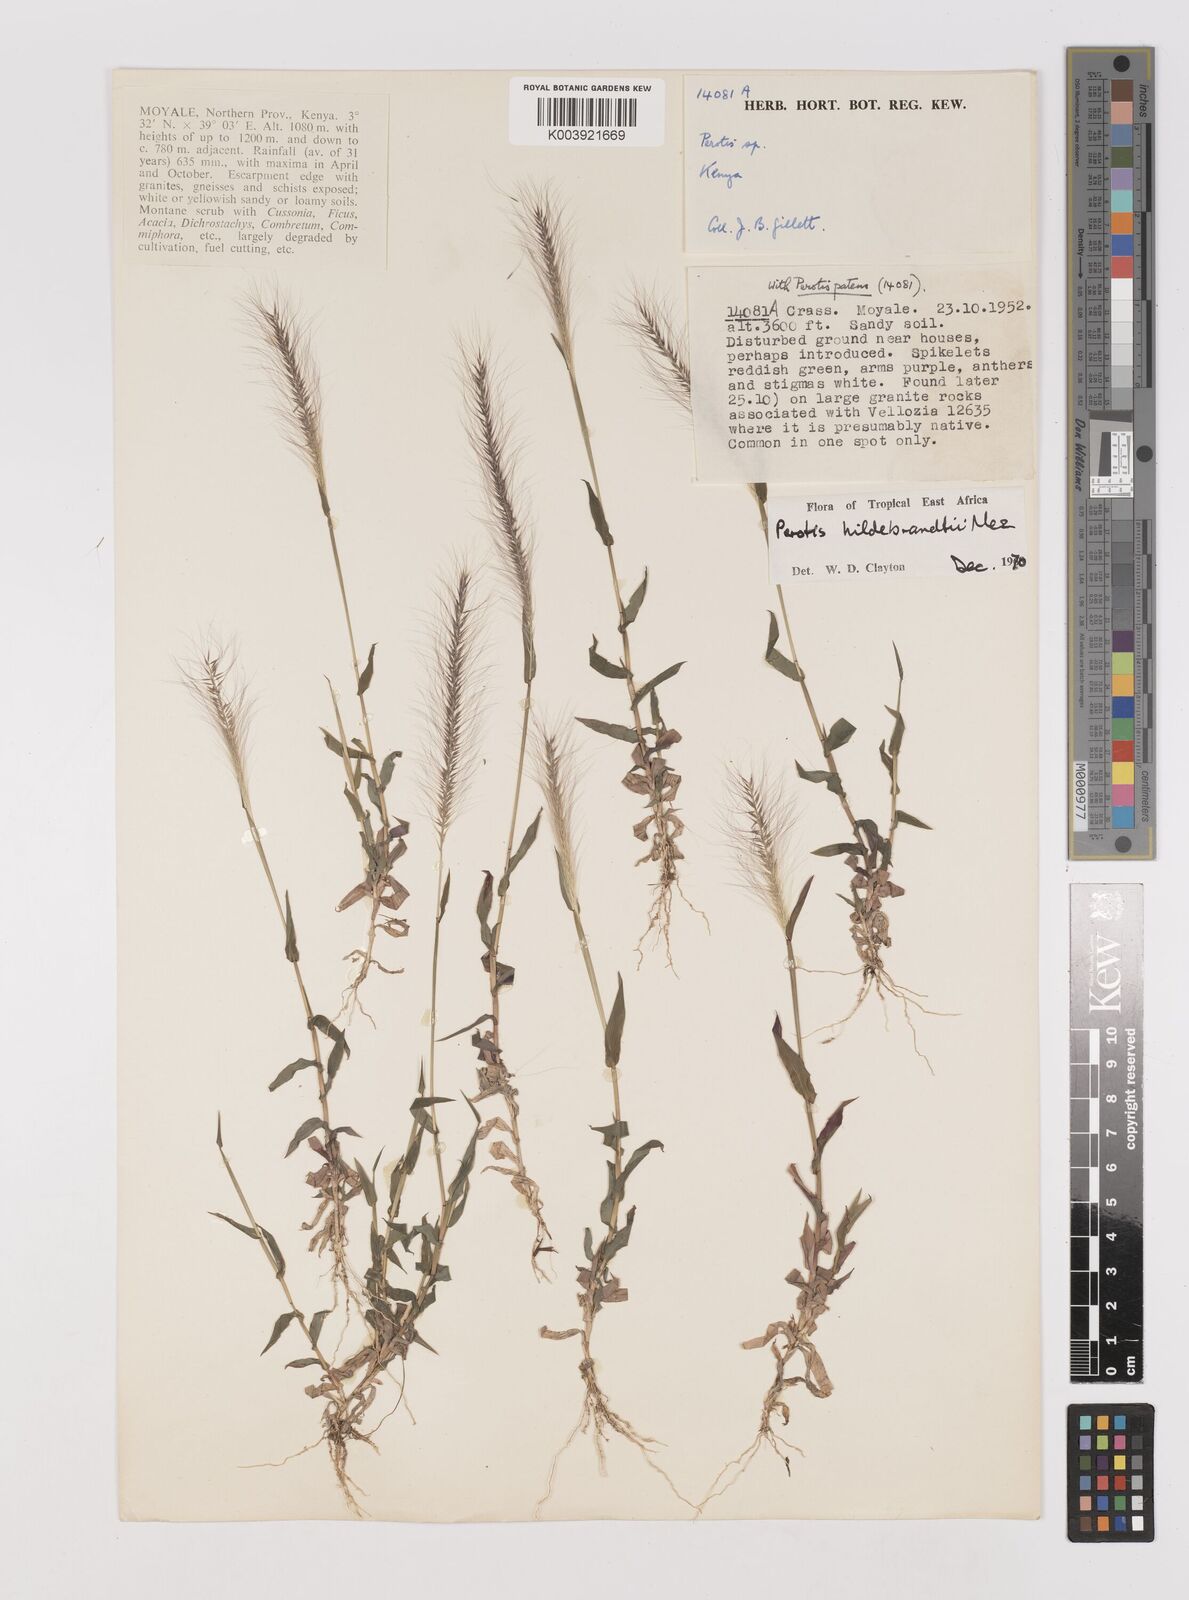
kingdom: Plantae
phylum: Tracheophyta
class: Liliopsida
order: Poales
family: Poaceae
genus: Perotis
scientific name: Perotis hildebrandtii
